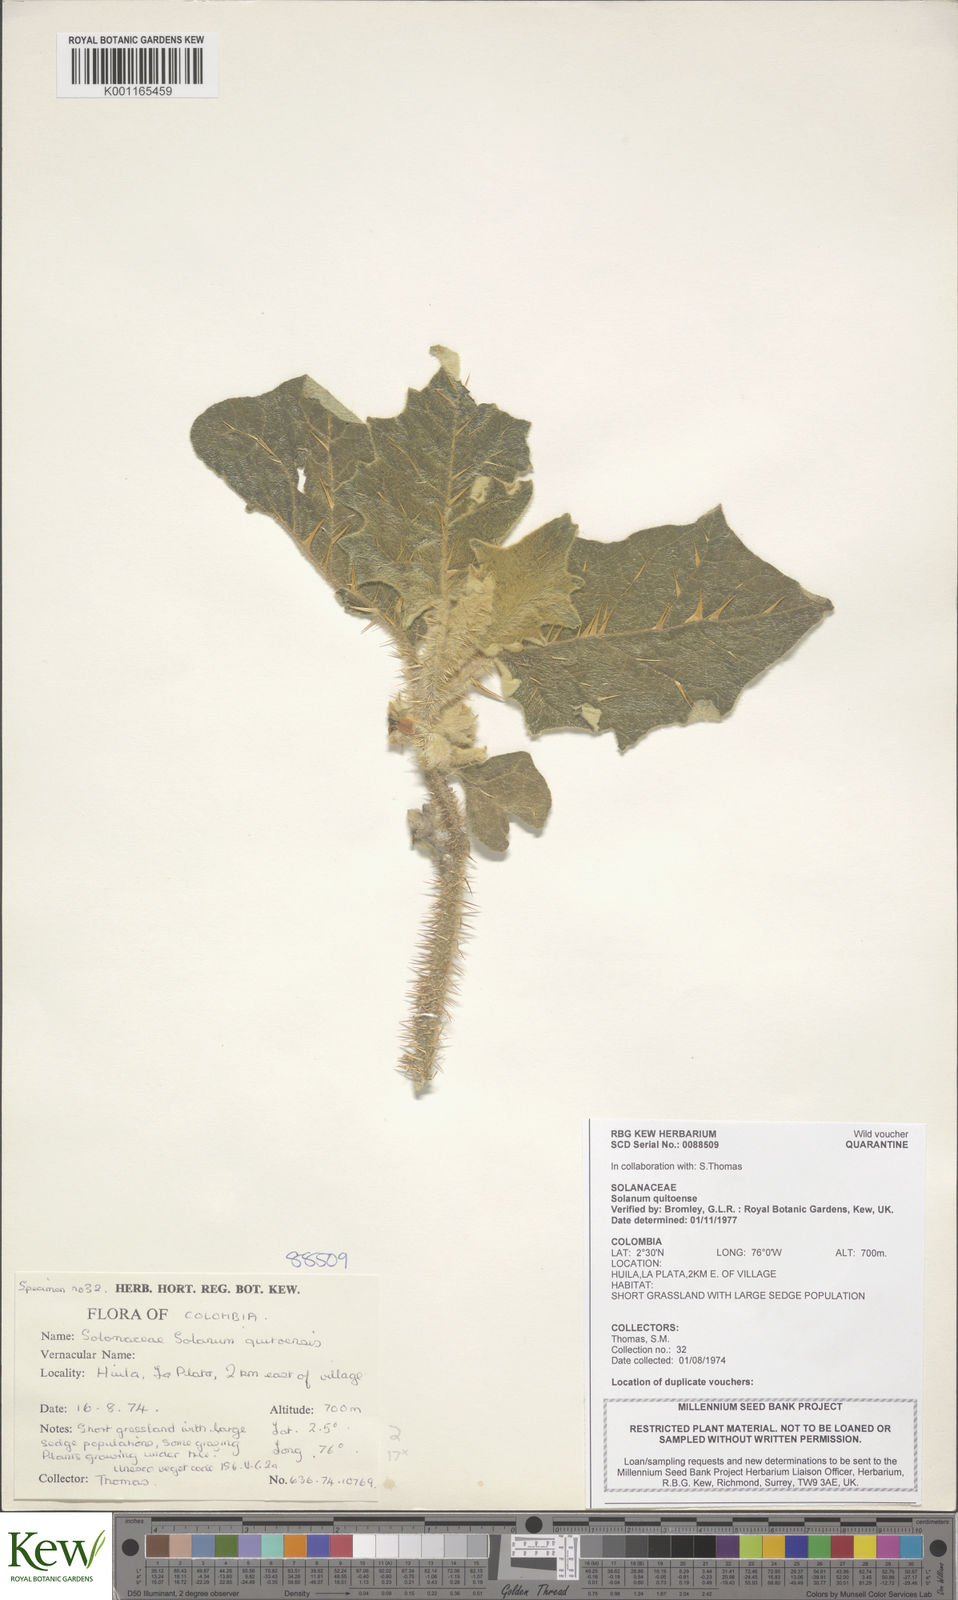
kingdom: Plantae
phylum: Tracheophyta
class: Magnoliopsida
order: Solanales
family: Solanaceae
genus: Solanum
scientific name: Solanum quitoense
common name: Quito-orange
